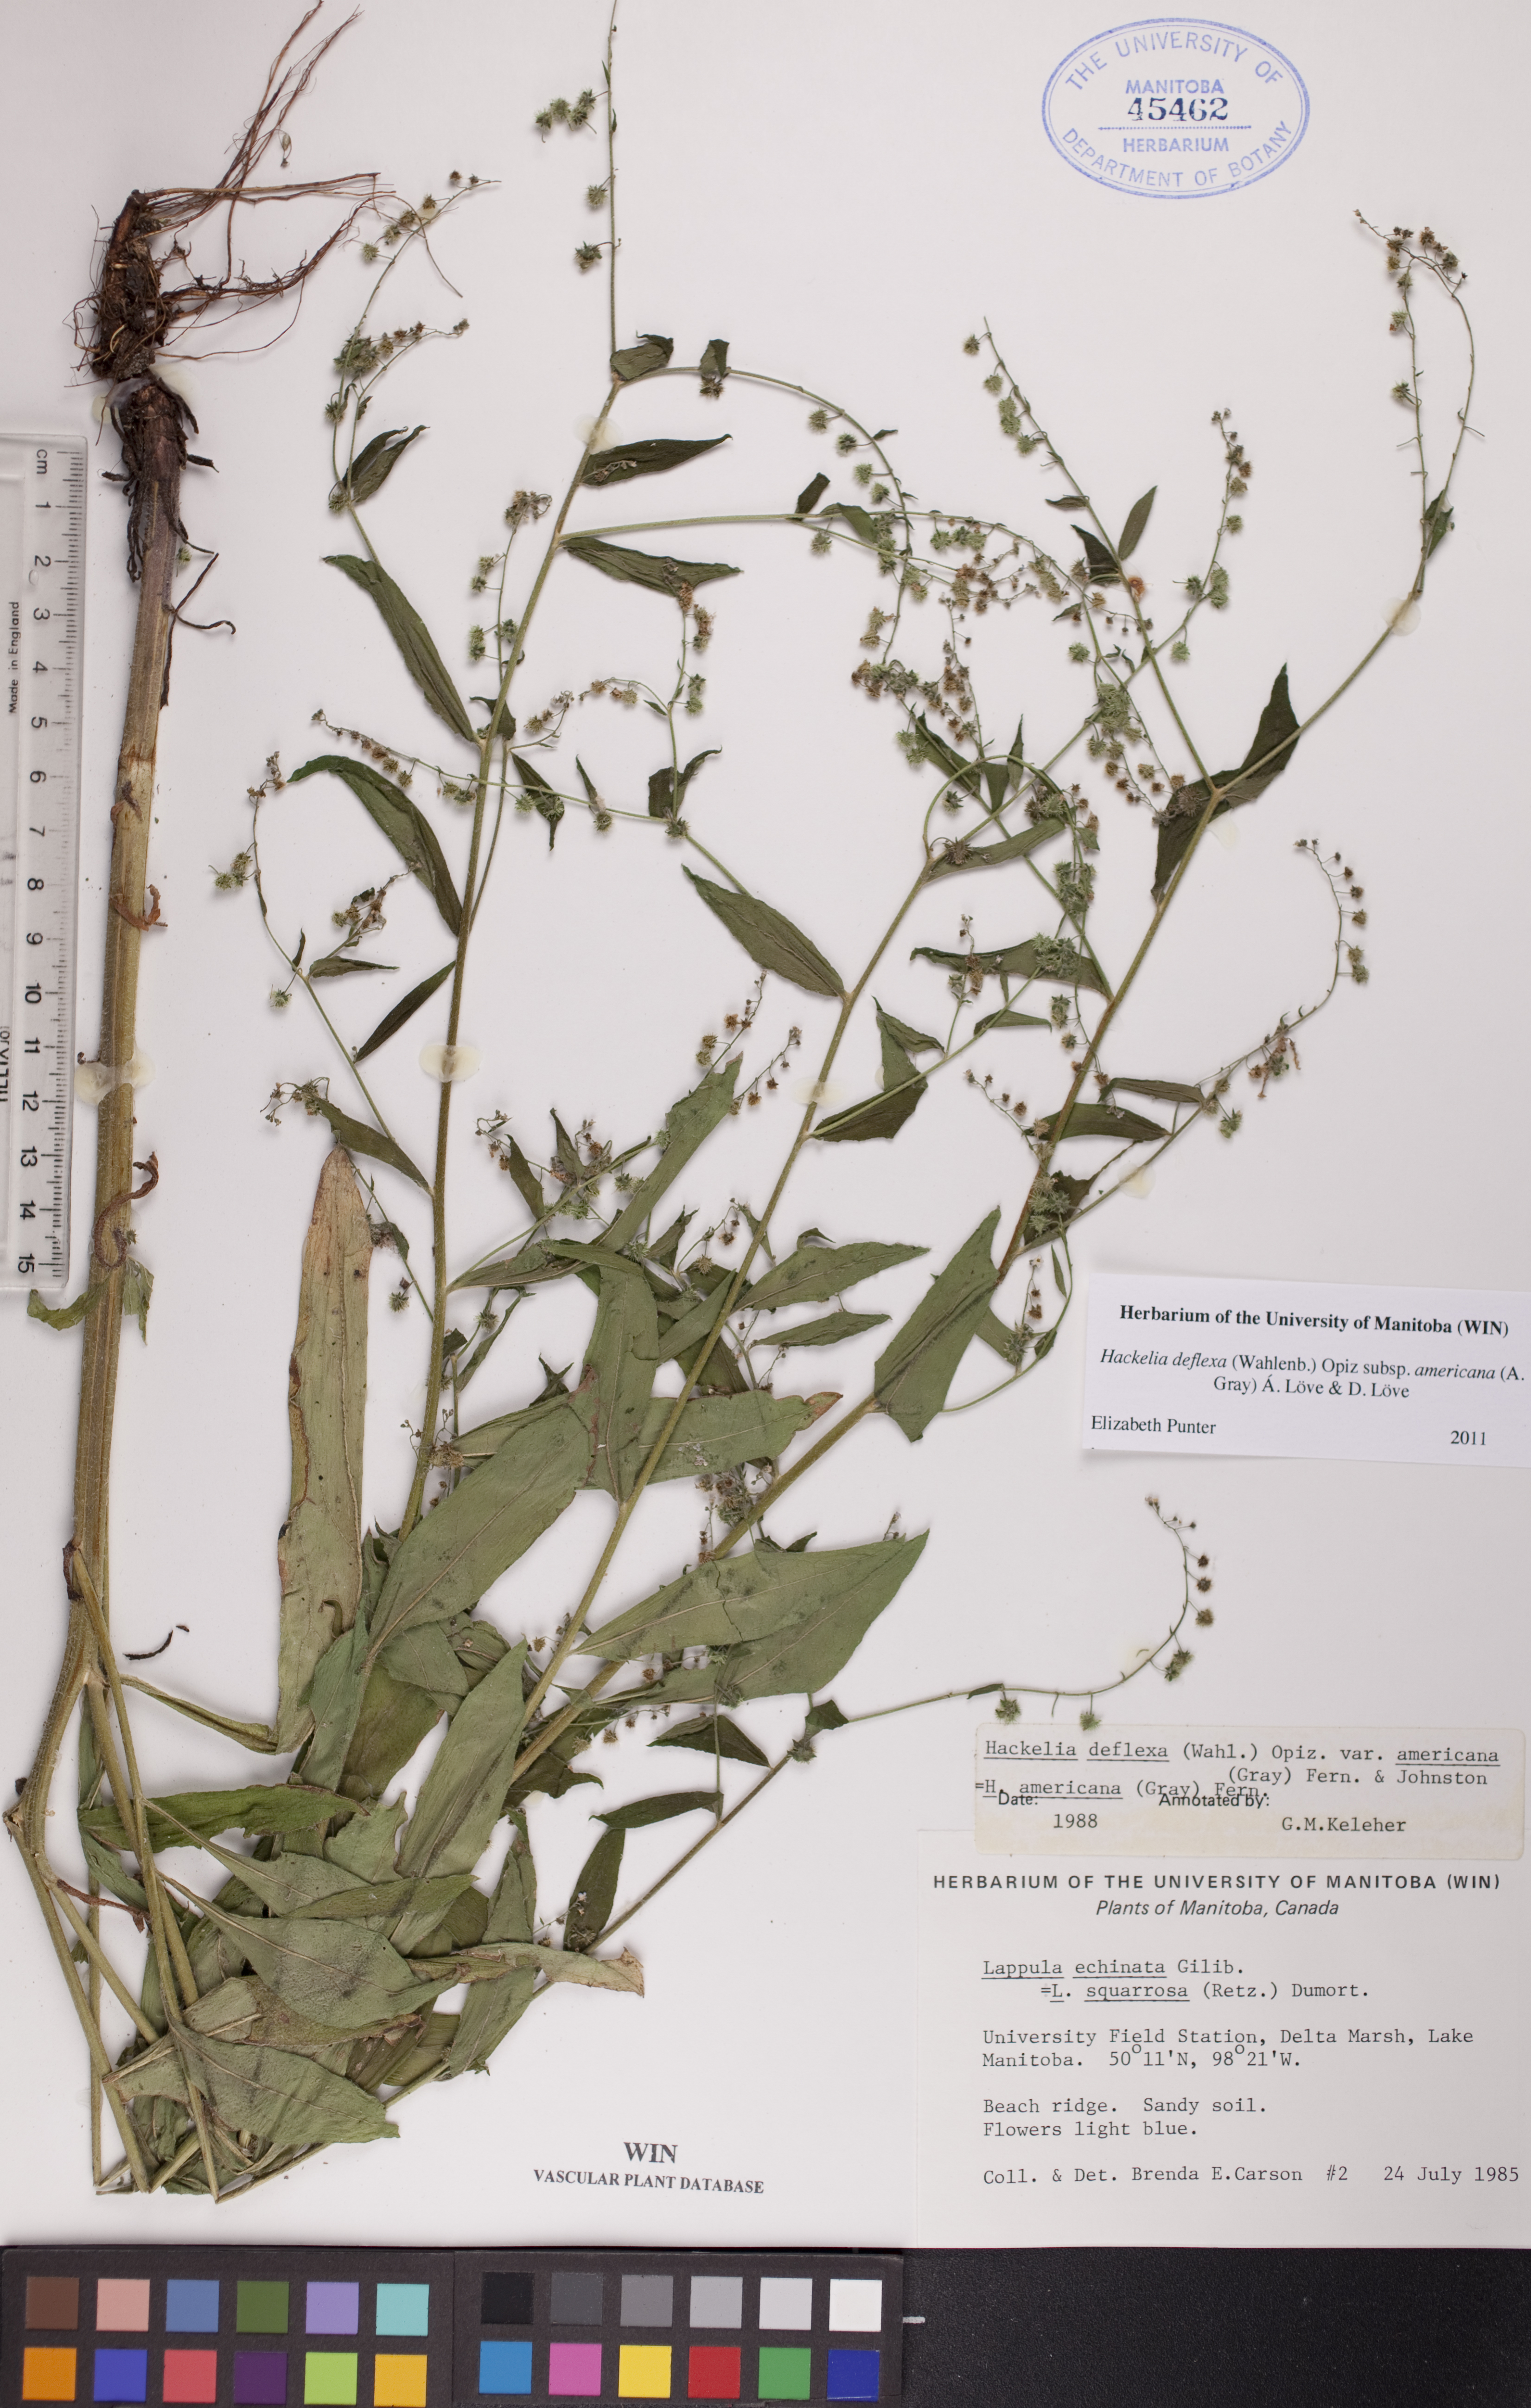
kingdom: Plantae
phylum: Tracheophyta
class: Magnoliopsida
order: Boraginales
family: Boraginaceae
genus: Hackelia
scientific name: Hackelia deflexa
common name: Nodding stickseed
